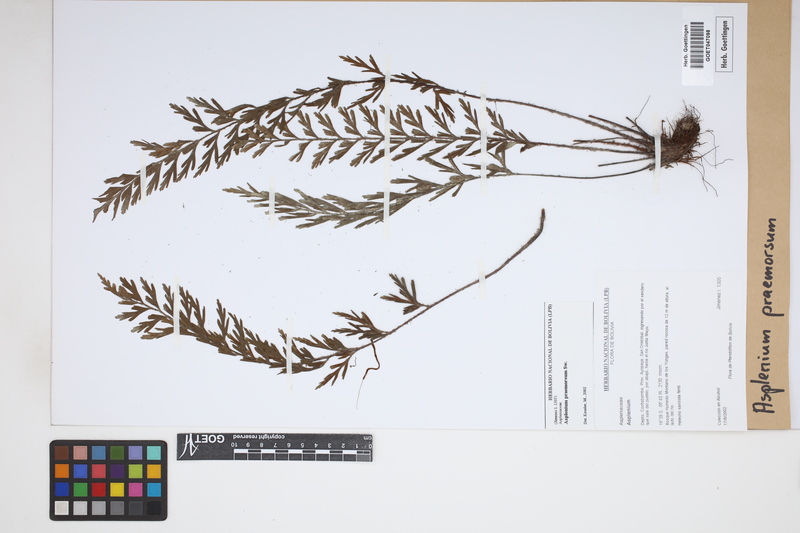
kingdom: Plantae
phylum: Tracheophyta
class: Polypodiopsida
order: Polypodiales
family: Aspleniaceae
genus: Asplenium
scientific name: Asplenium praemorsum
